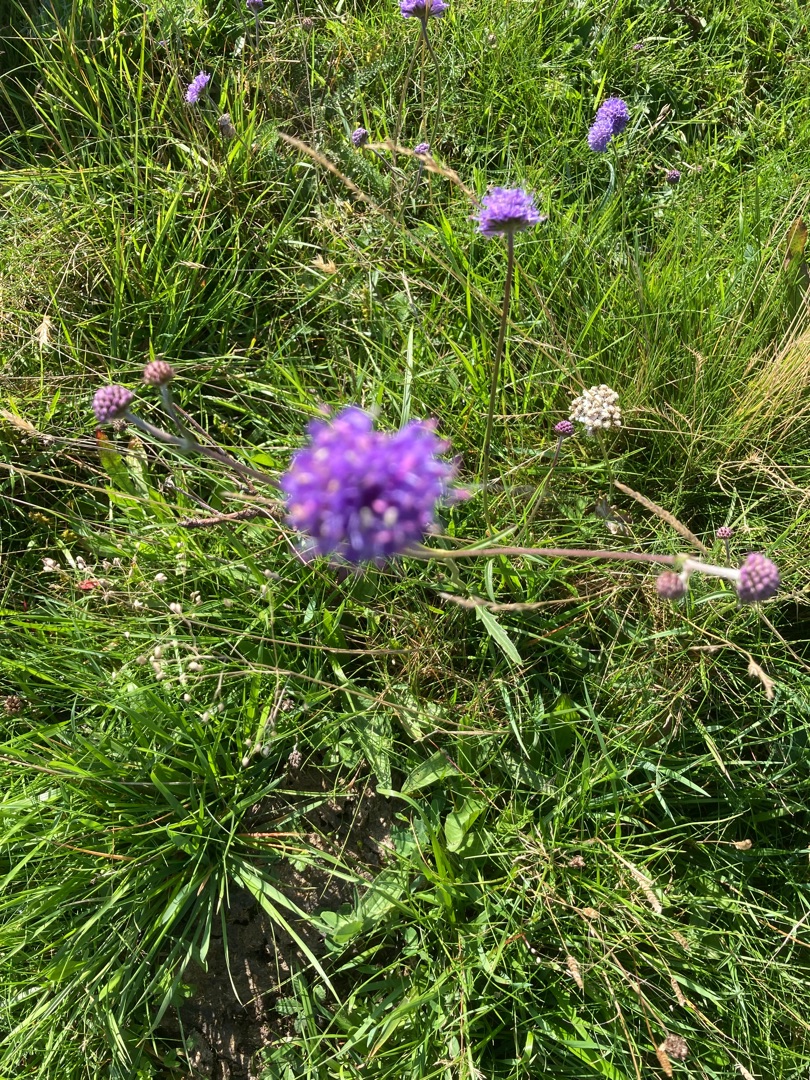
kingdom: Plantae
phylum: Tracheophyta
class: Magnoliopsida
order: Dipsacales
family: Caprifoliaceae
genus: Succisa
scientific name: Succisa pratensis
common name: Djævelsbid
